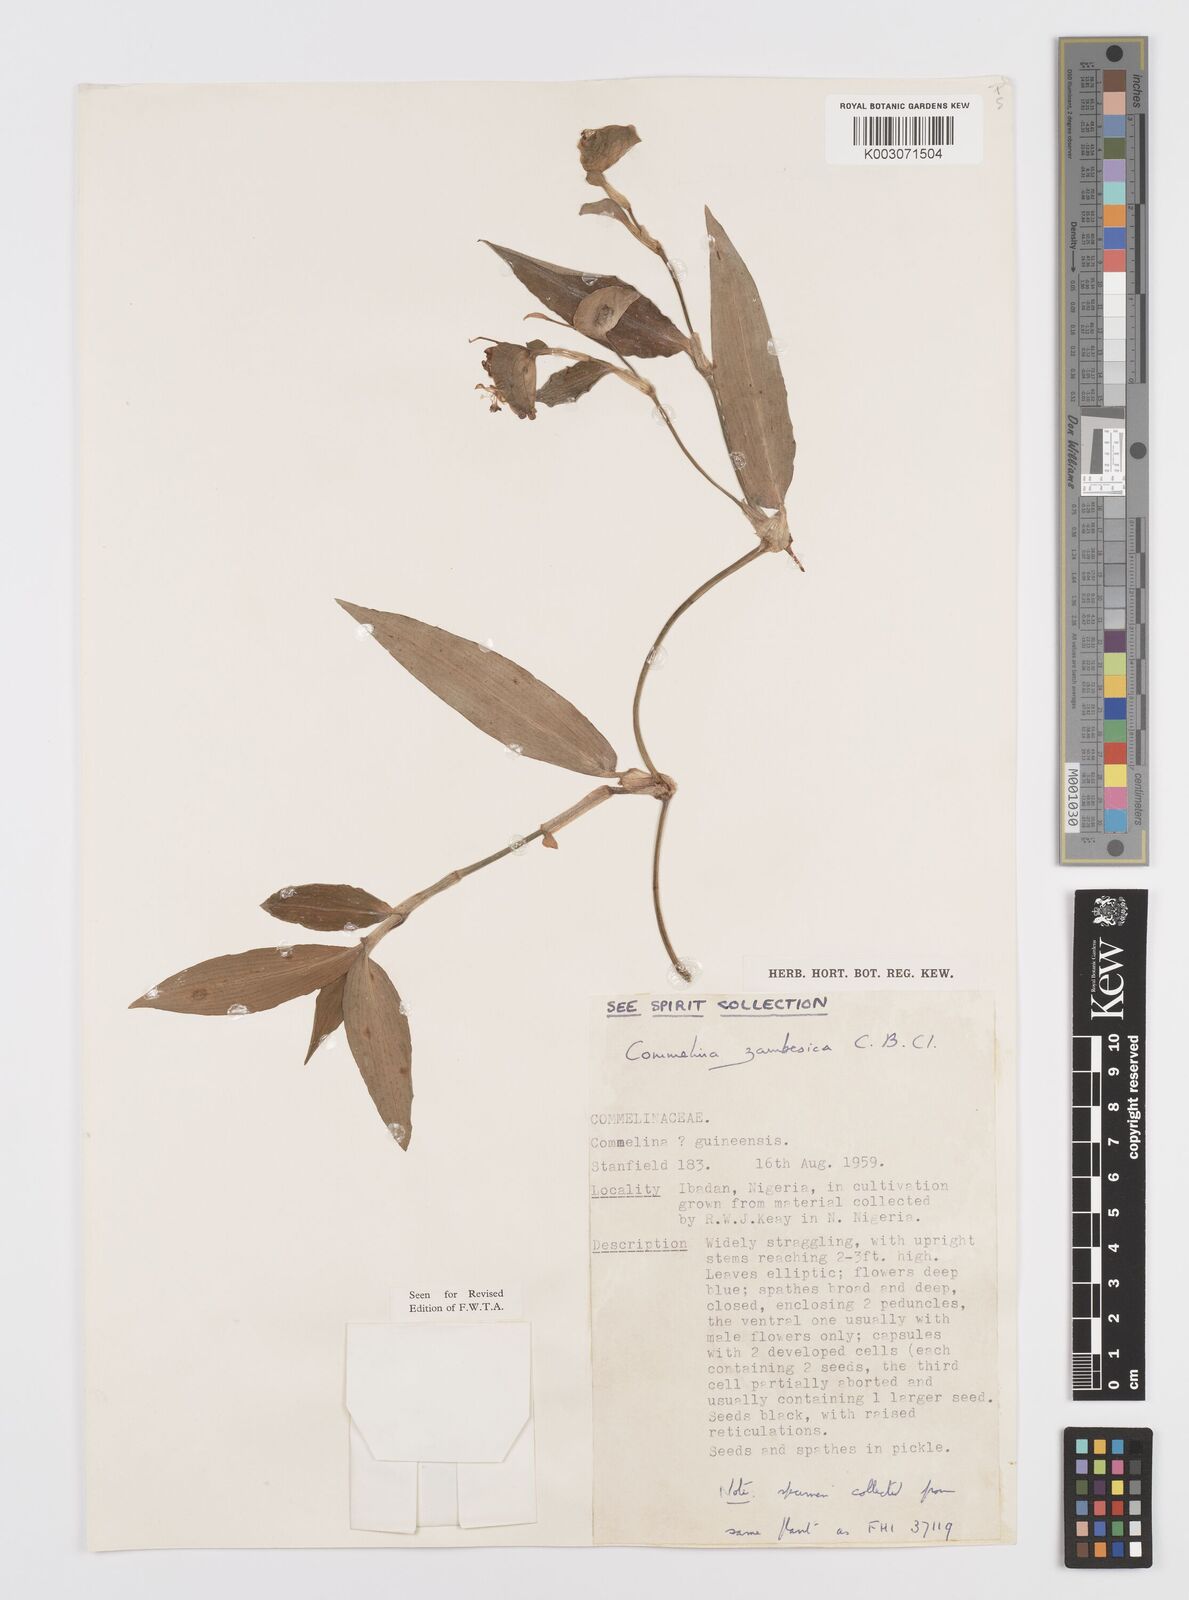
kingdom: Plantae
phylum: Tracheophyta
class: Liliopsida
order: Commelinales
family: Commelinaceae
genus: Commelina
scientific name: Commelina zambesica
